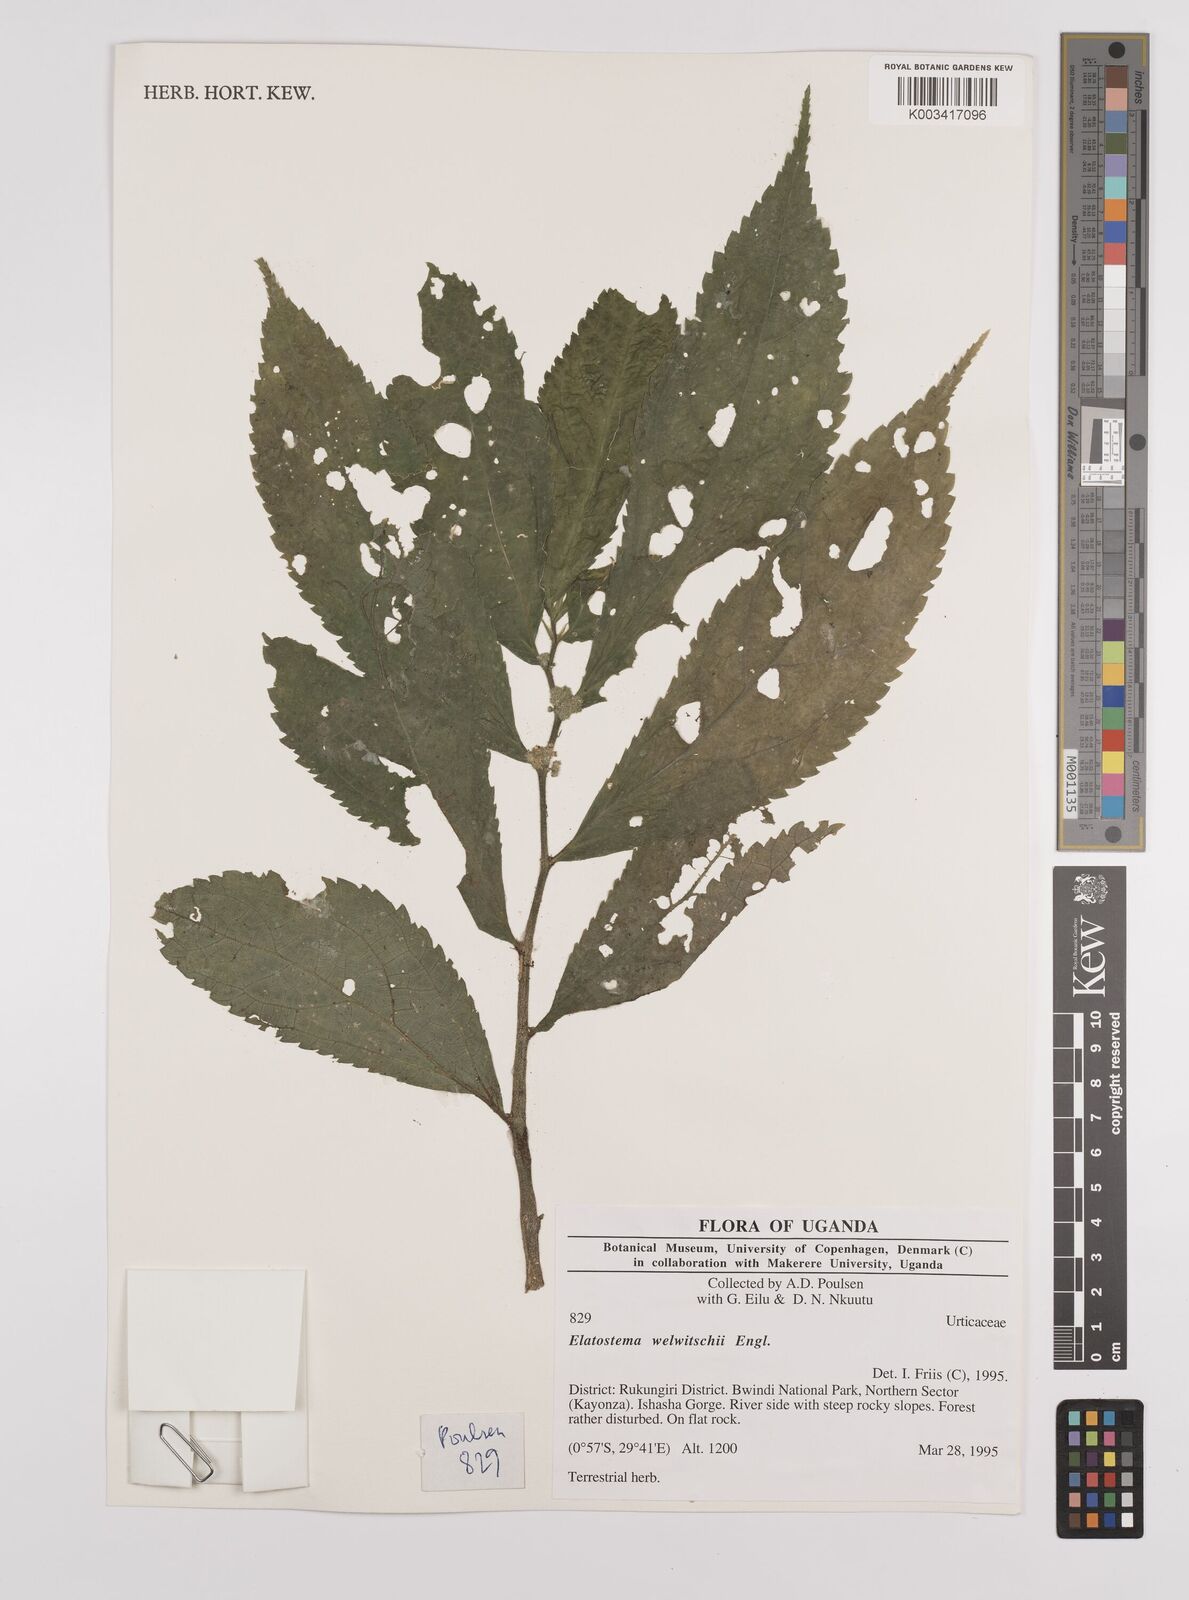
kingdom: Plantae
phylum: Tracheophyta
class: Magnoliopsida
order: Rosales
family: Urticaceae
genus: Elatostema
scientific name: Elatostema welwitschii
